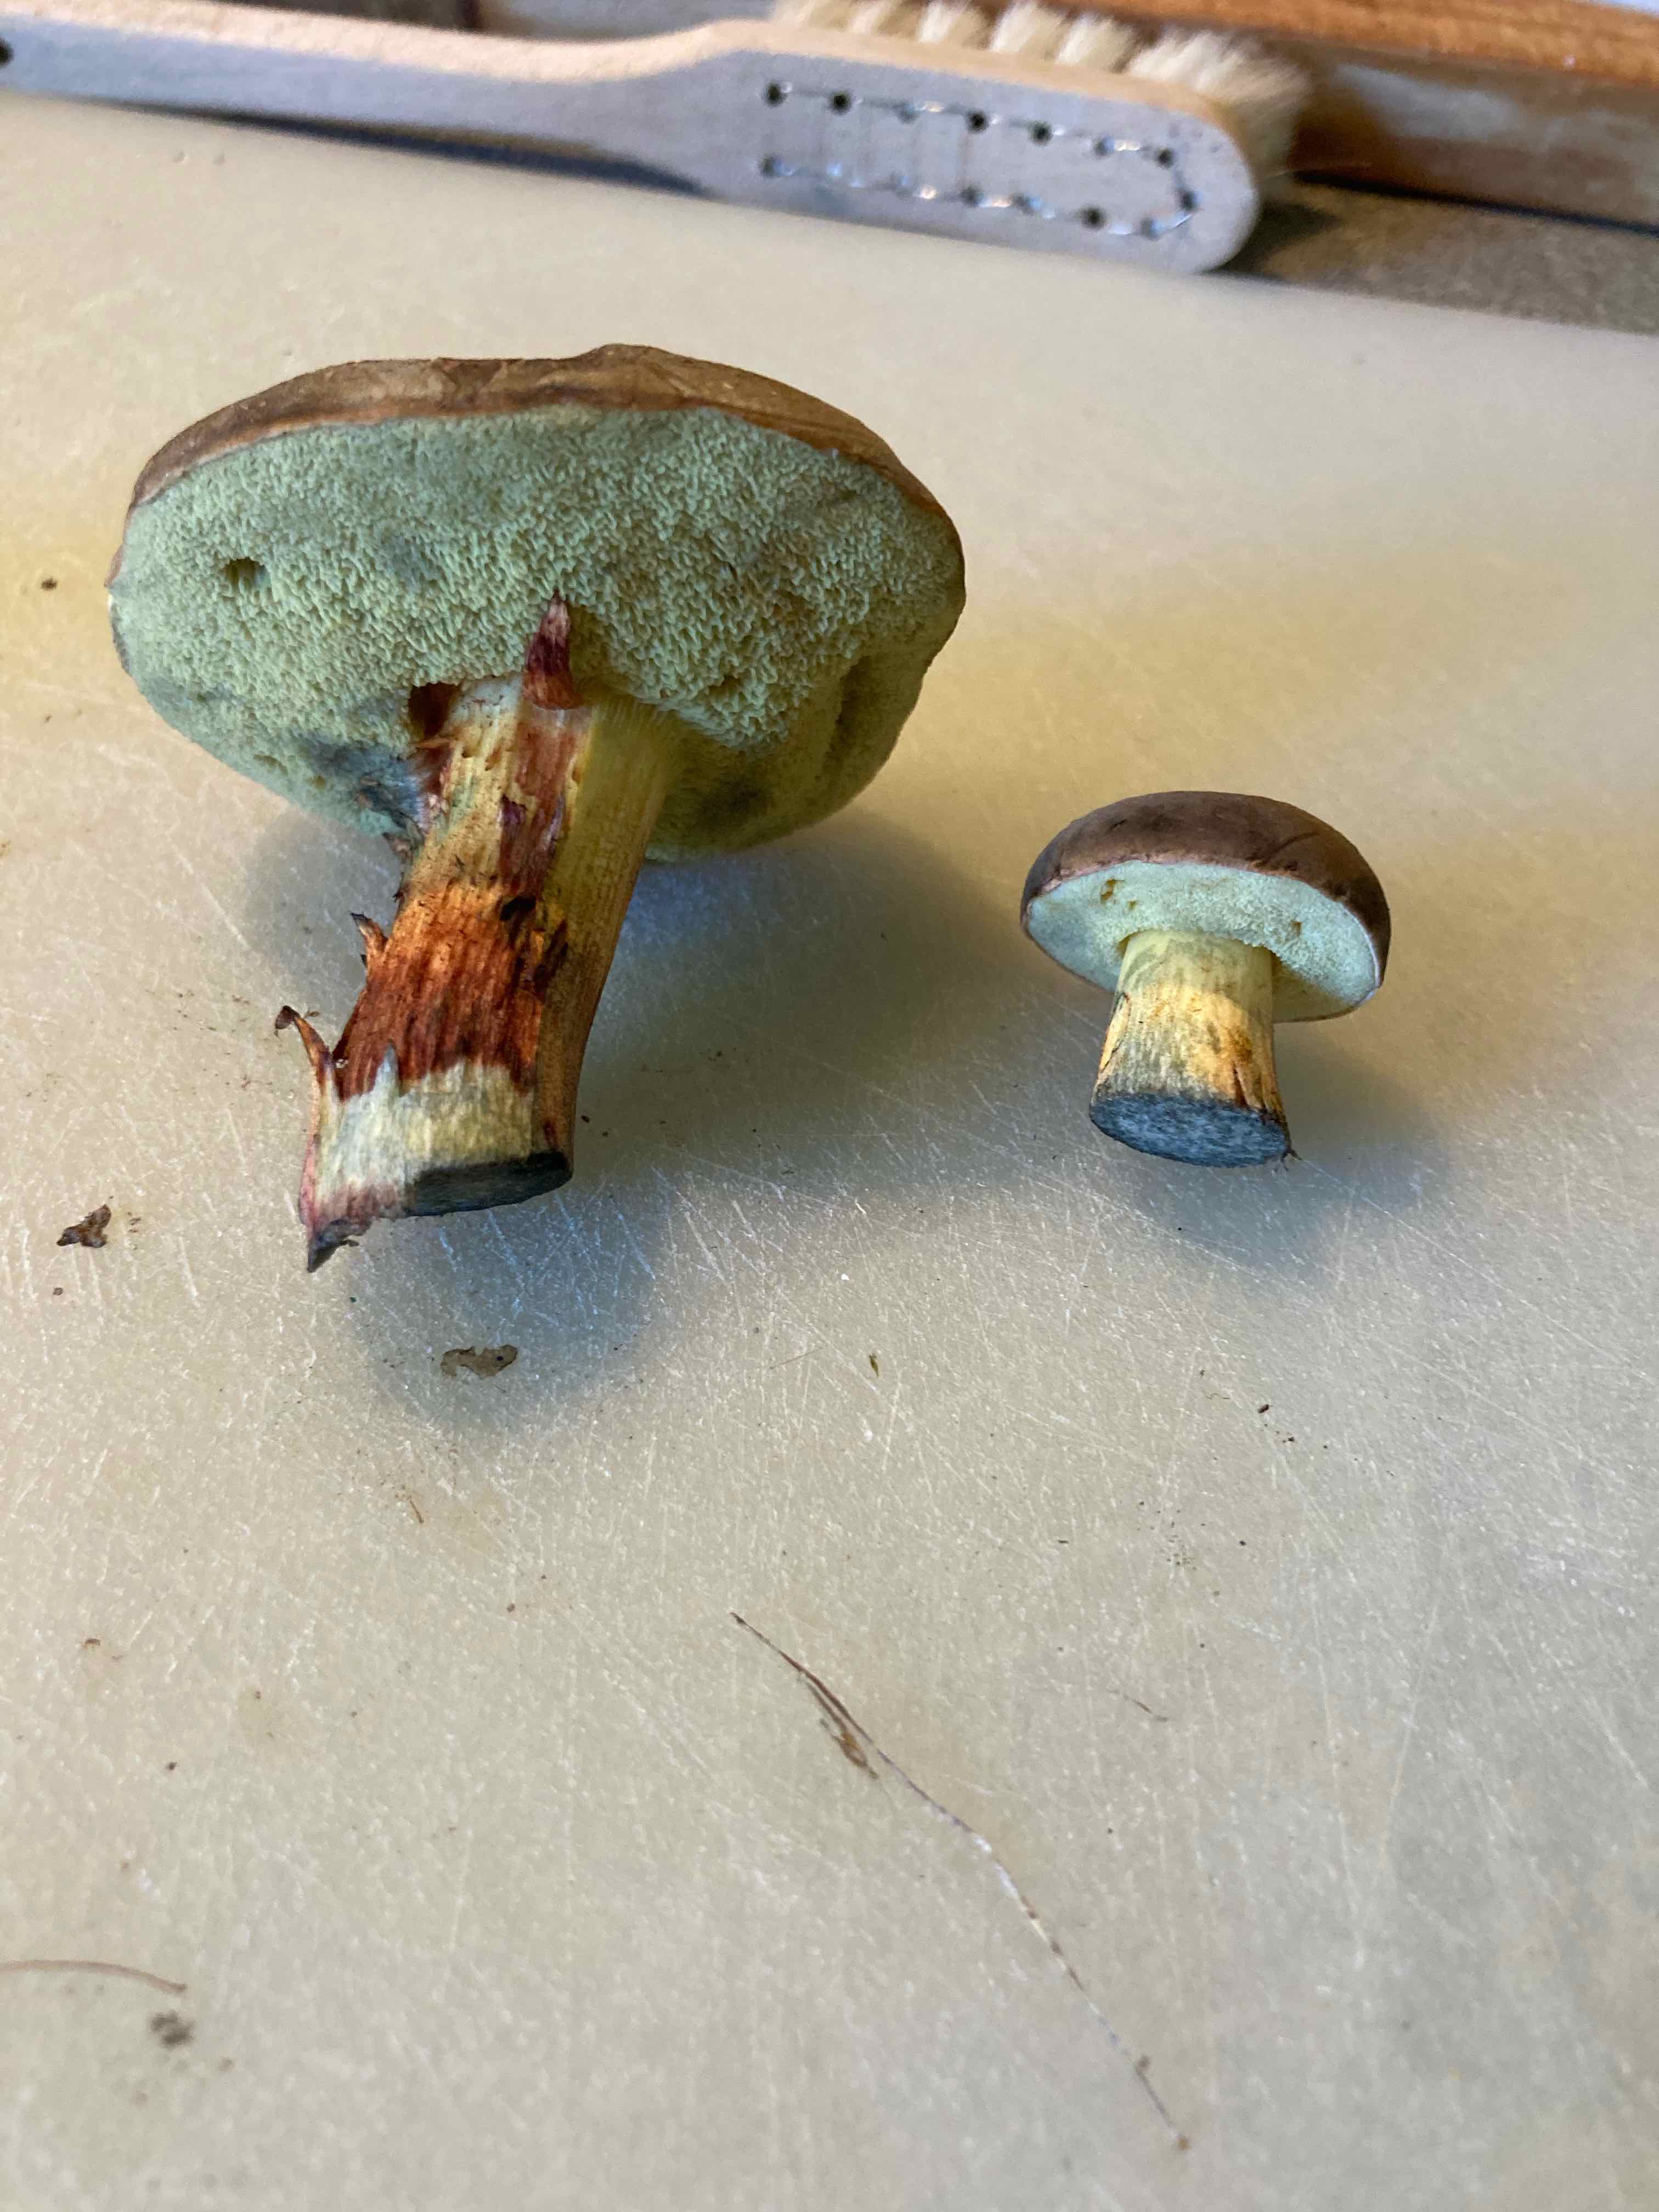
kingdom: Fungi
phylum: Basidiomycota
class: Agaricomycetes
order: Boletales
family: Boletaceae
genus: Xerocomellus
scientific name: Xerocomellus cisalpinus
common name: finsprukken rørhat
